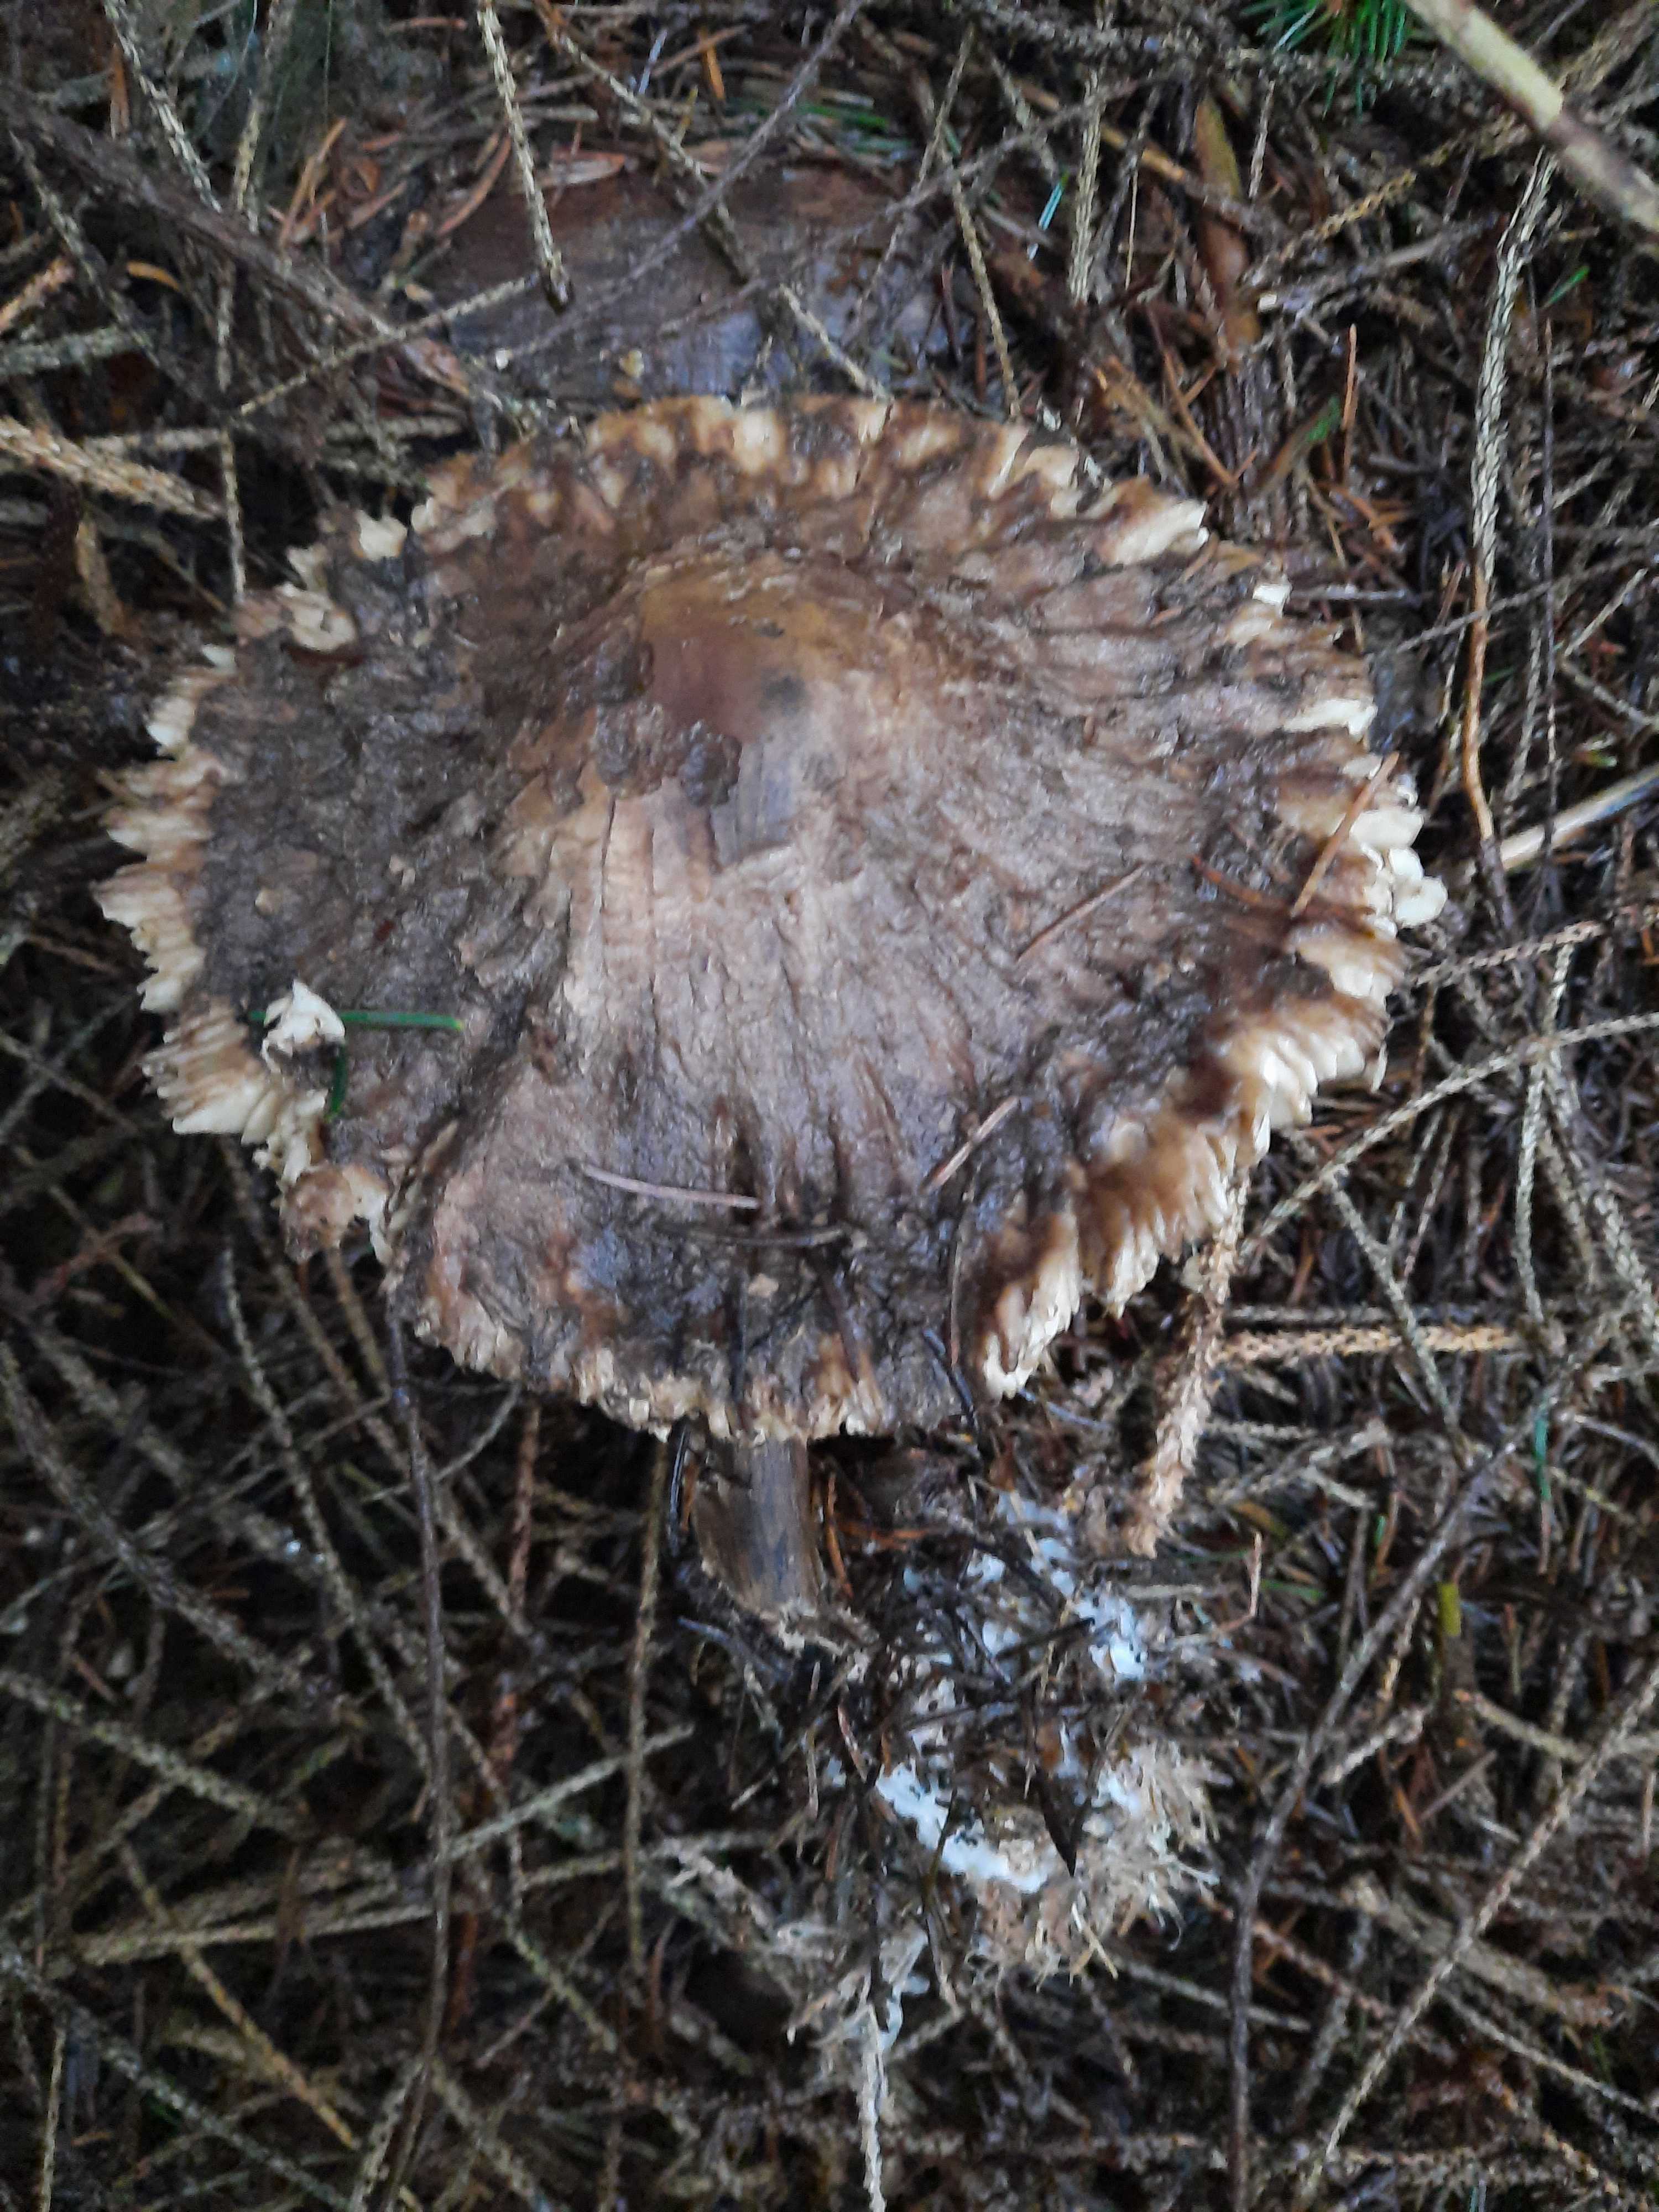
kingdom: Fungi
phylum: Basidiomycota
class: Agaricomycetes
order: Agaricales
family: Agaricaceae
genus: Chlorophyllum
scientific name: Chlorophyllum
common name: rabarberhat
